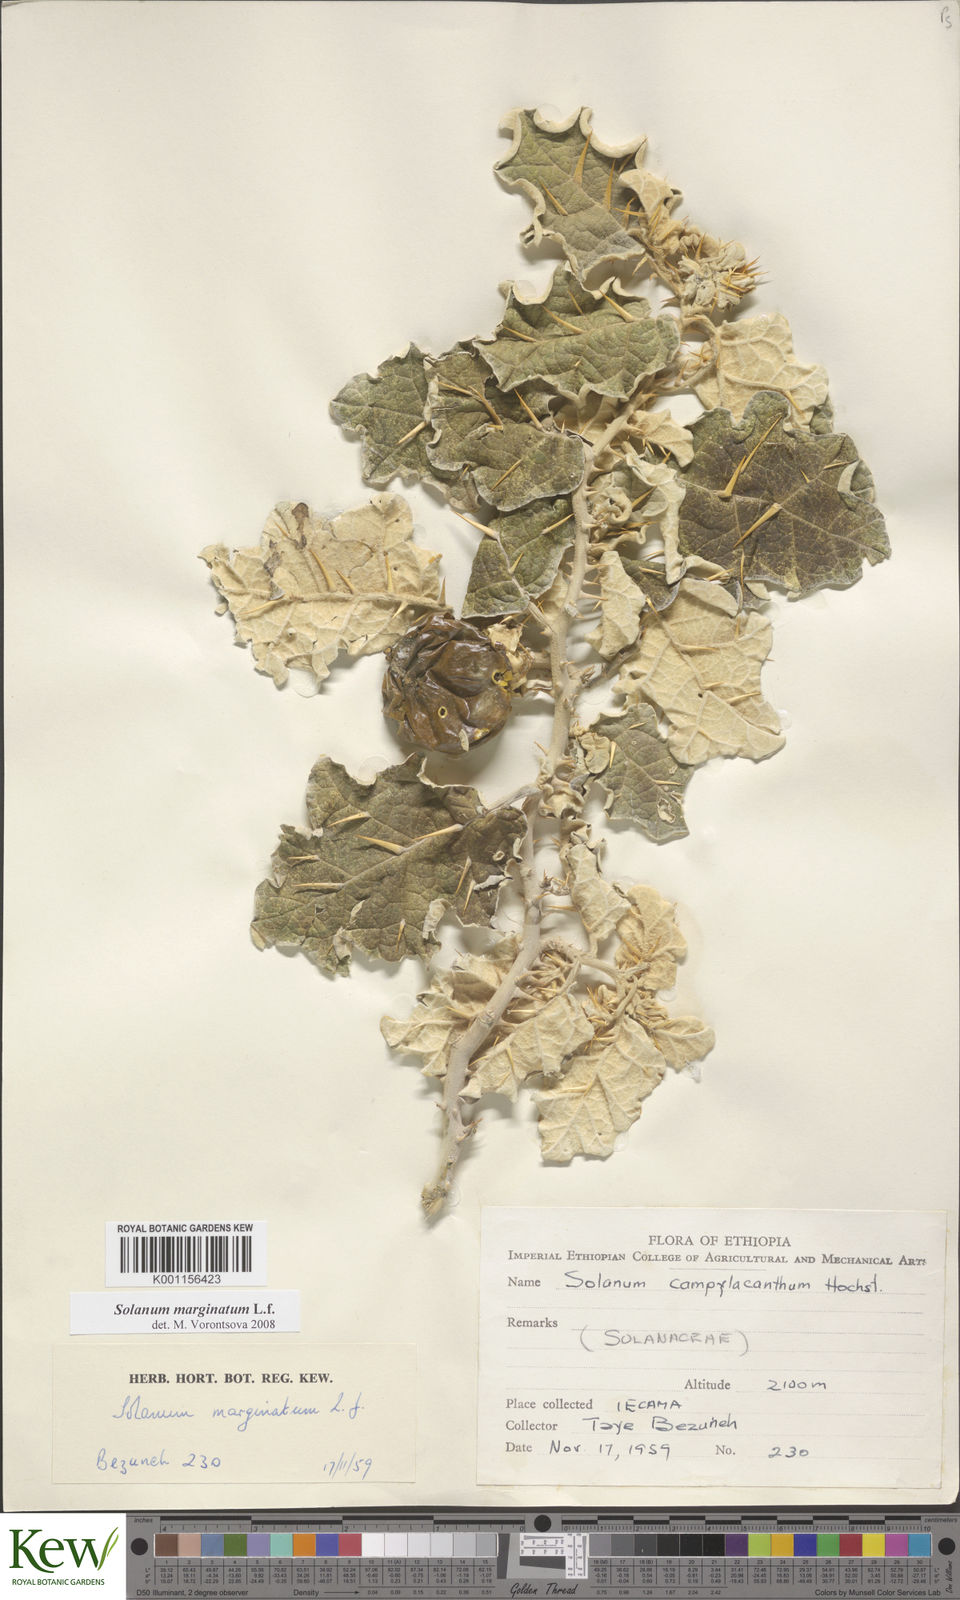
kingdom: Plantae
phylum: Tracheophyta
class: Magnoliopsida
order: Solanales
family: Solanaceae
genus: Solanum
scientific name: Solanum marginatum
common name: Purple african nightshade
